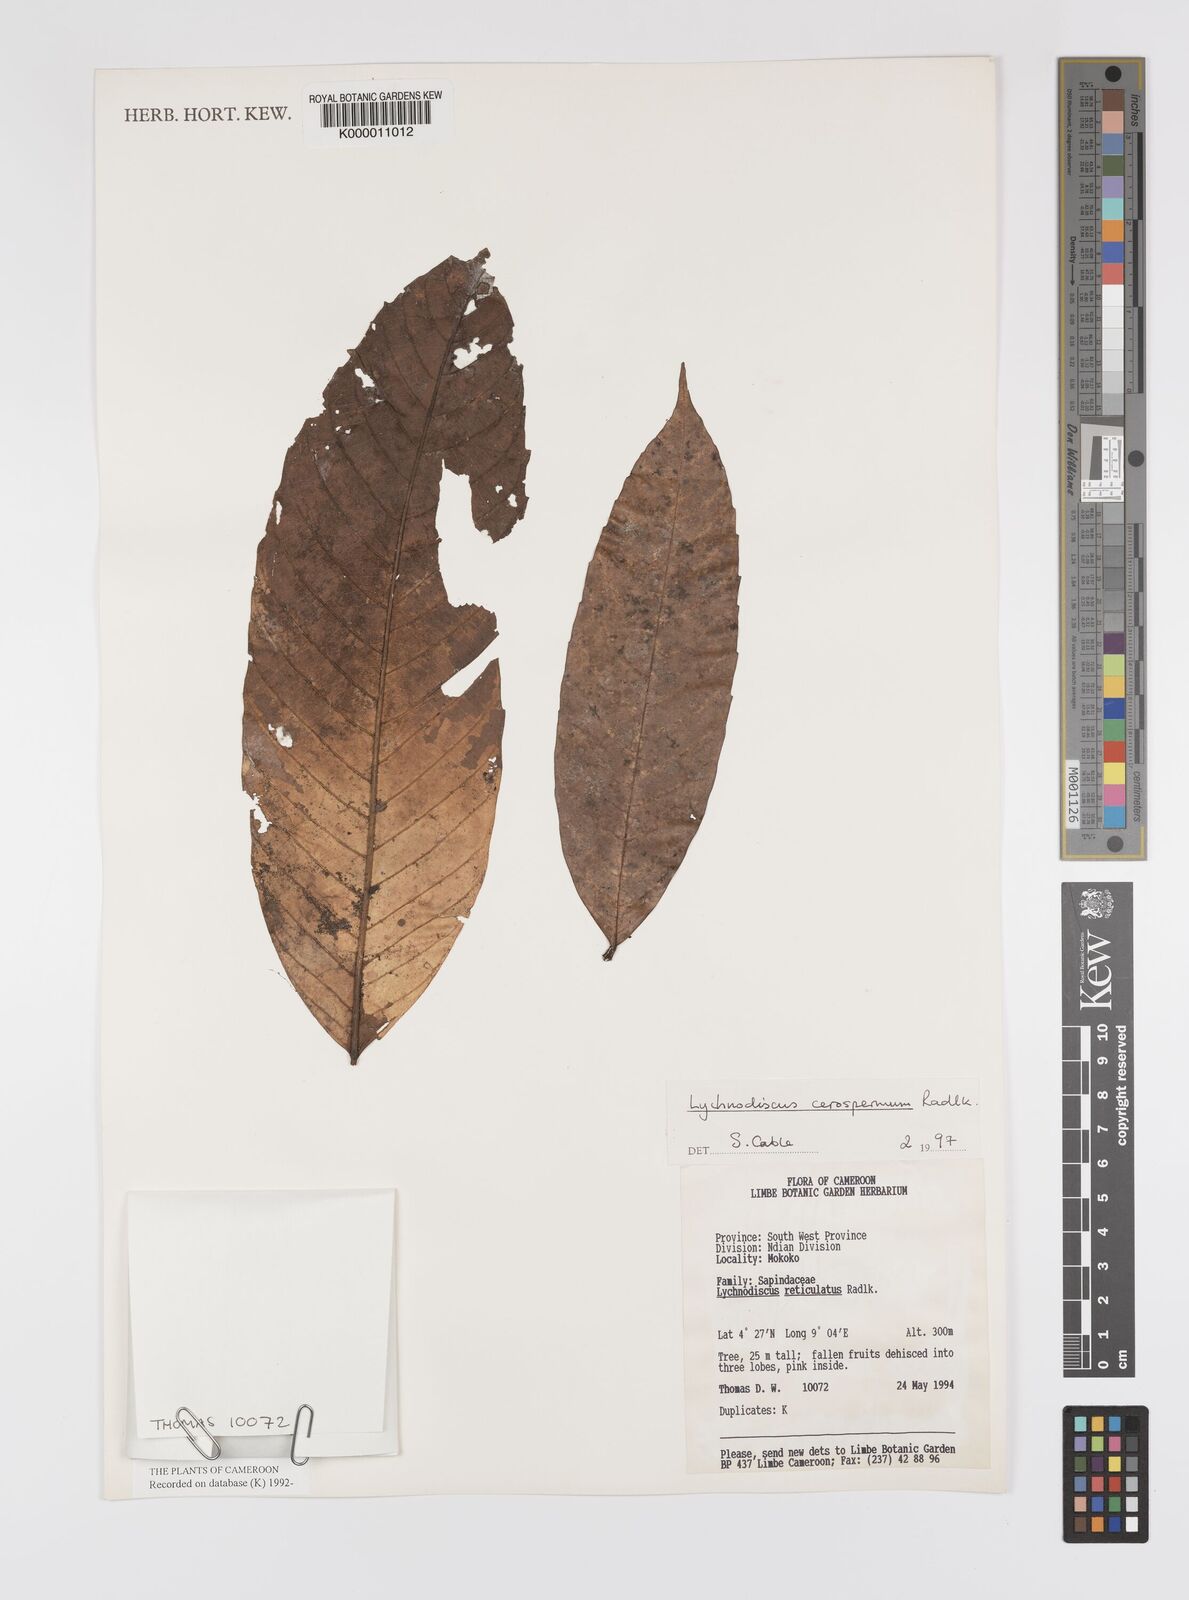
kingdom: Plantae
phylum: Tracheophyta
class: Magnoliopsida
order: Sapindales
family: Sapindaceae
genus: Lychnodiscus
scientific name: Lychnodiscus cerospermus
